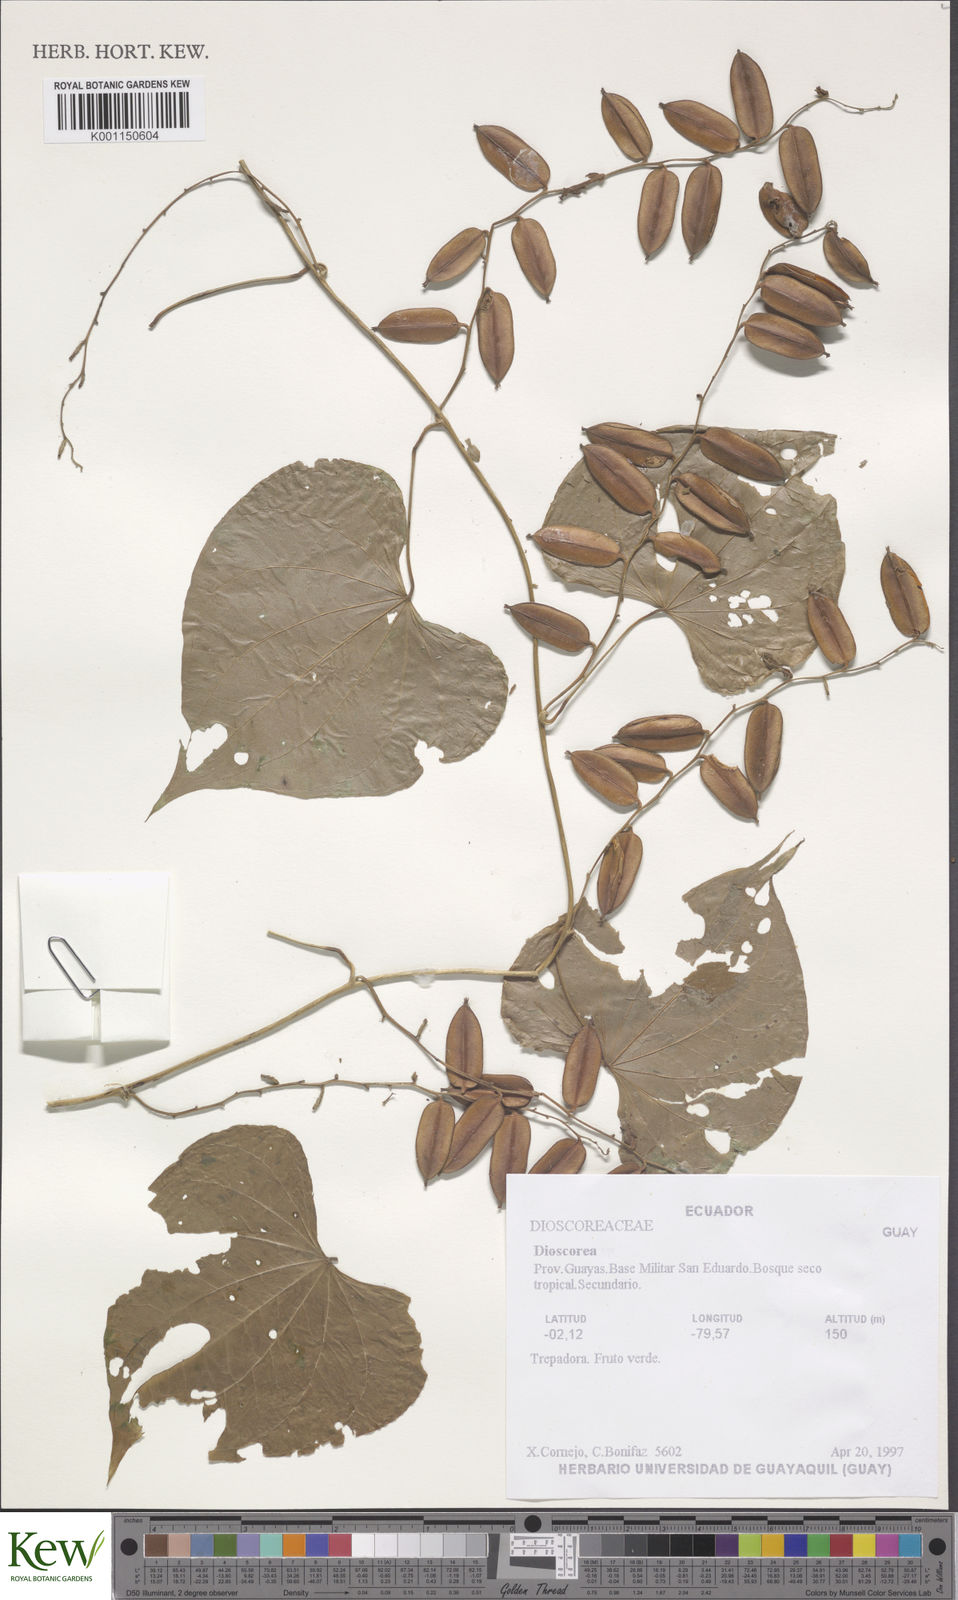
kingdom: Plantae
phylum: Tracheophyta
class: Liliopsida
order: Dioscoreales
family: Dioscoreaceae
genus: Dioscorea
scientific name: Dioscorea
